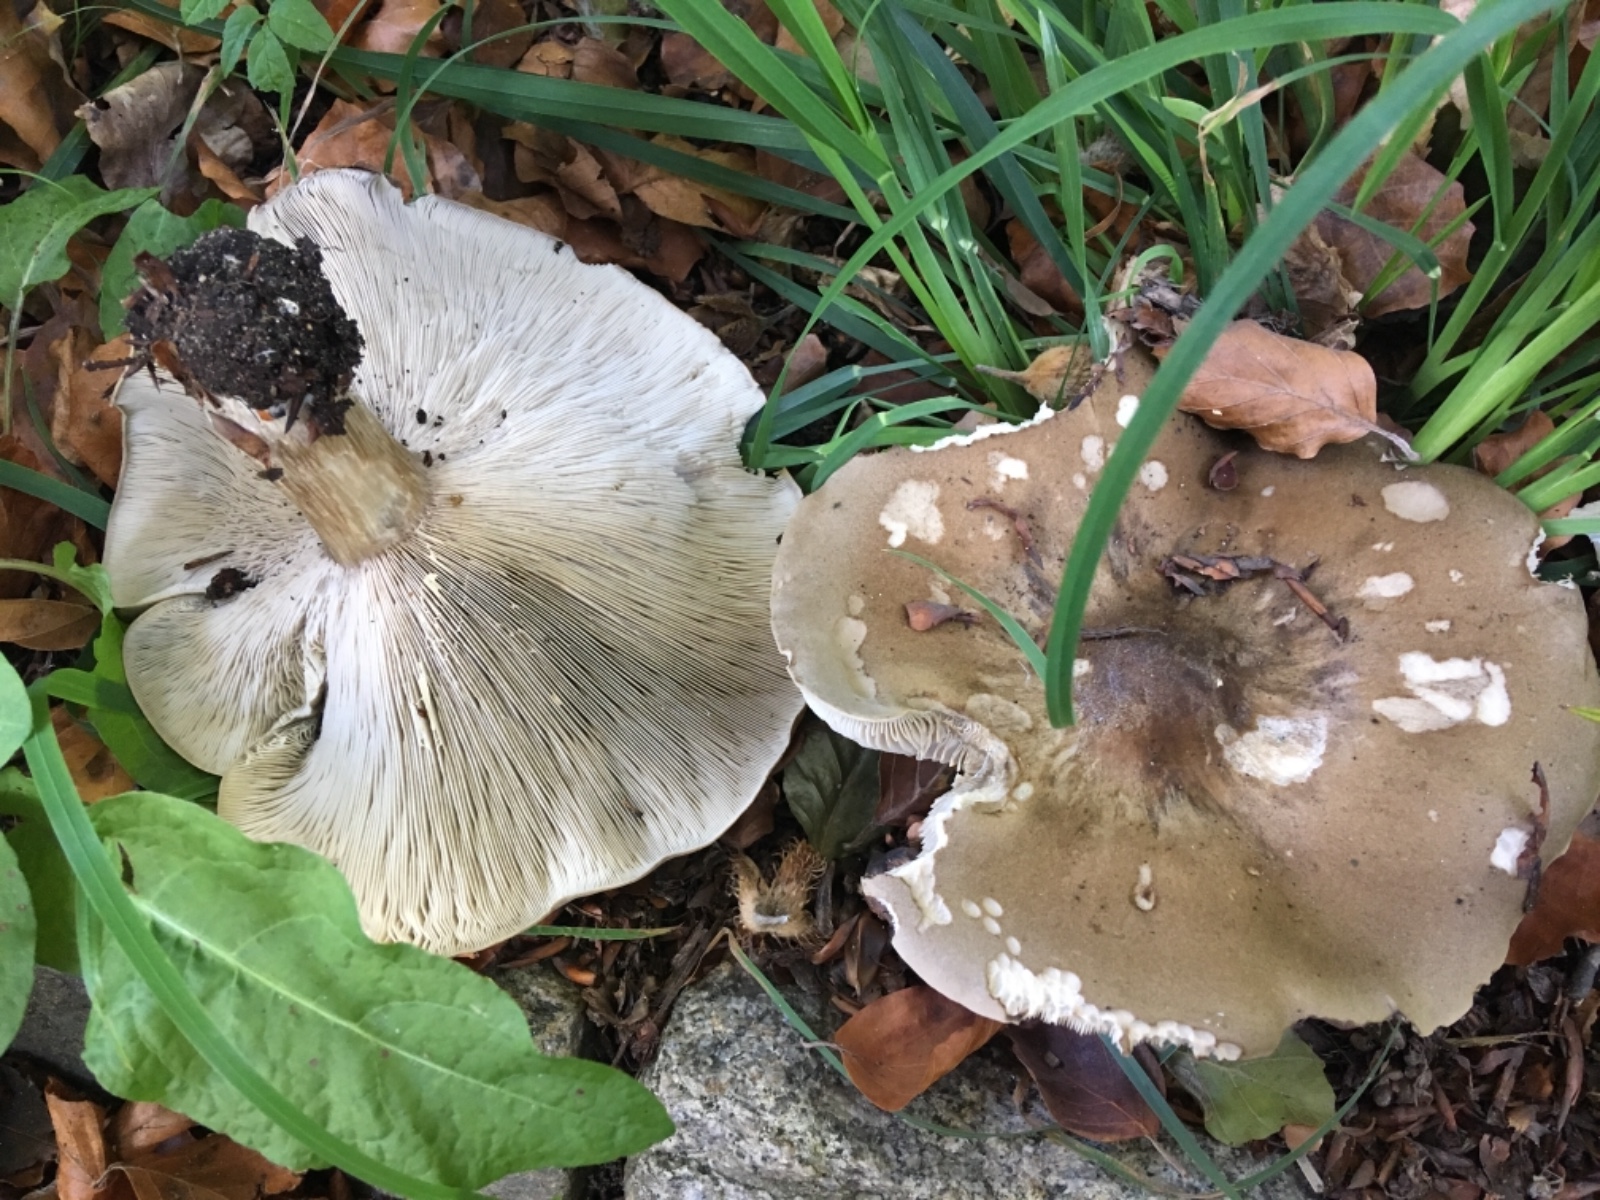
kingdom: Fungi
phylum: Basidiomycota
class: Agaricomycetes
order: Agaricales
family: Tricholomataceae
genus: Melanoleuca
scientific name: Melanoleuca
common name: munkehat
